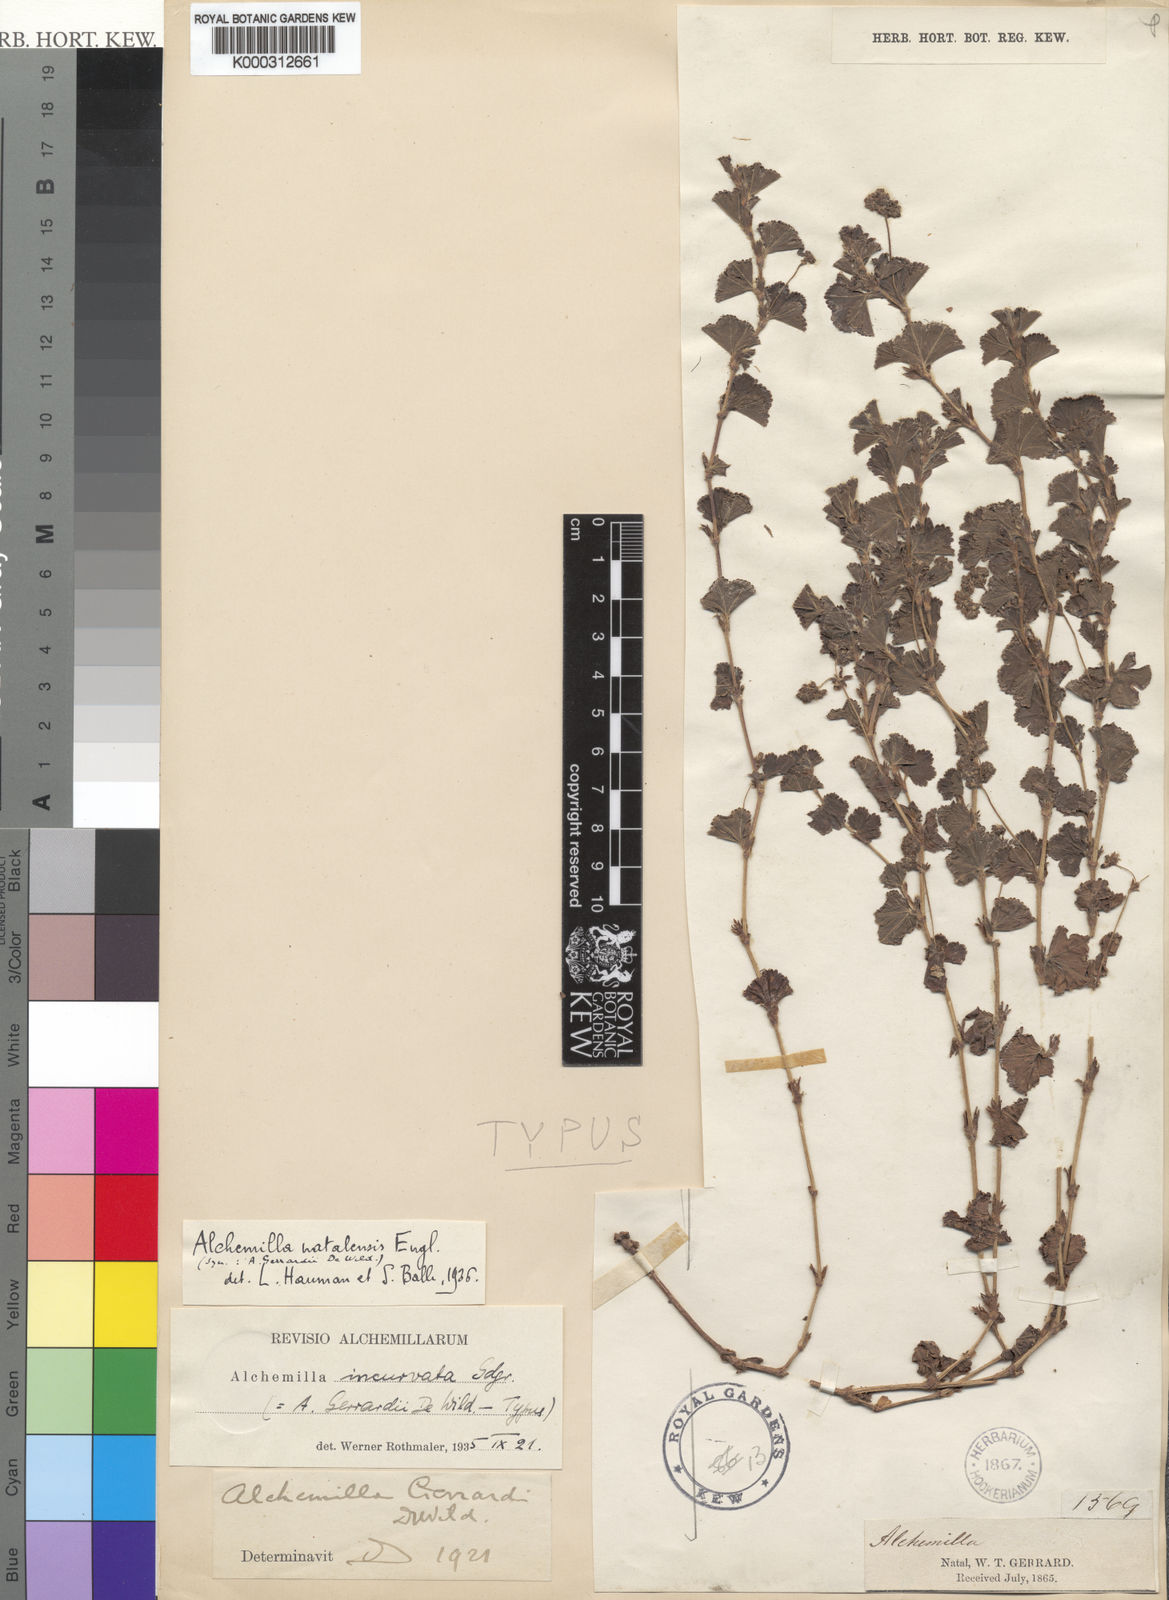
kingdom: Plantae
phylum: Tracheophyta
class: Magnoliopsida
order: Rosales
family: Rosaceae
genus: Alchemilla
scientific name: Alchemilla incurvata
